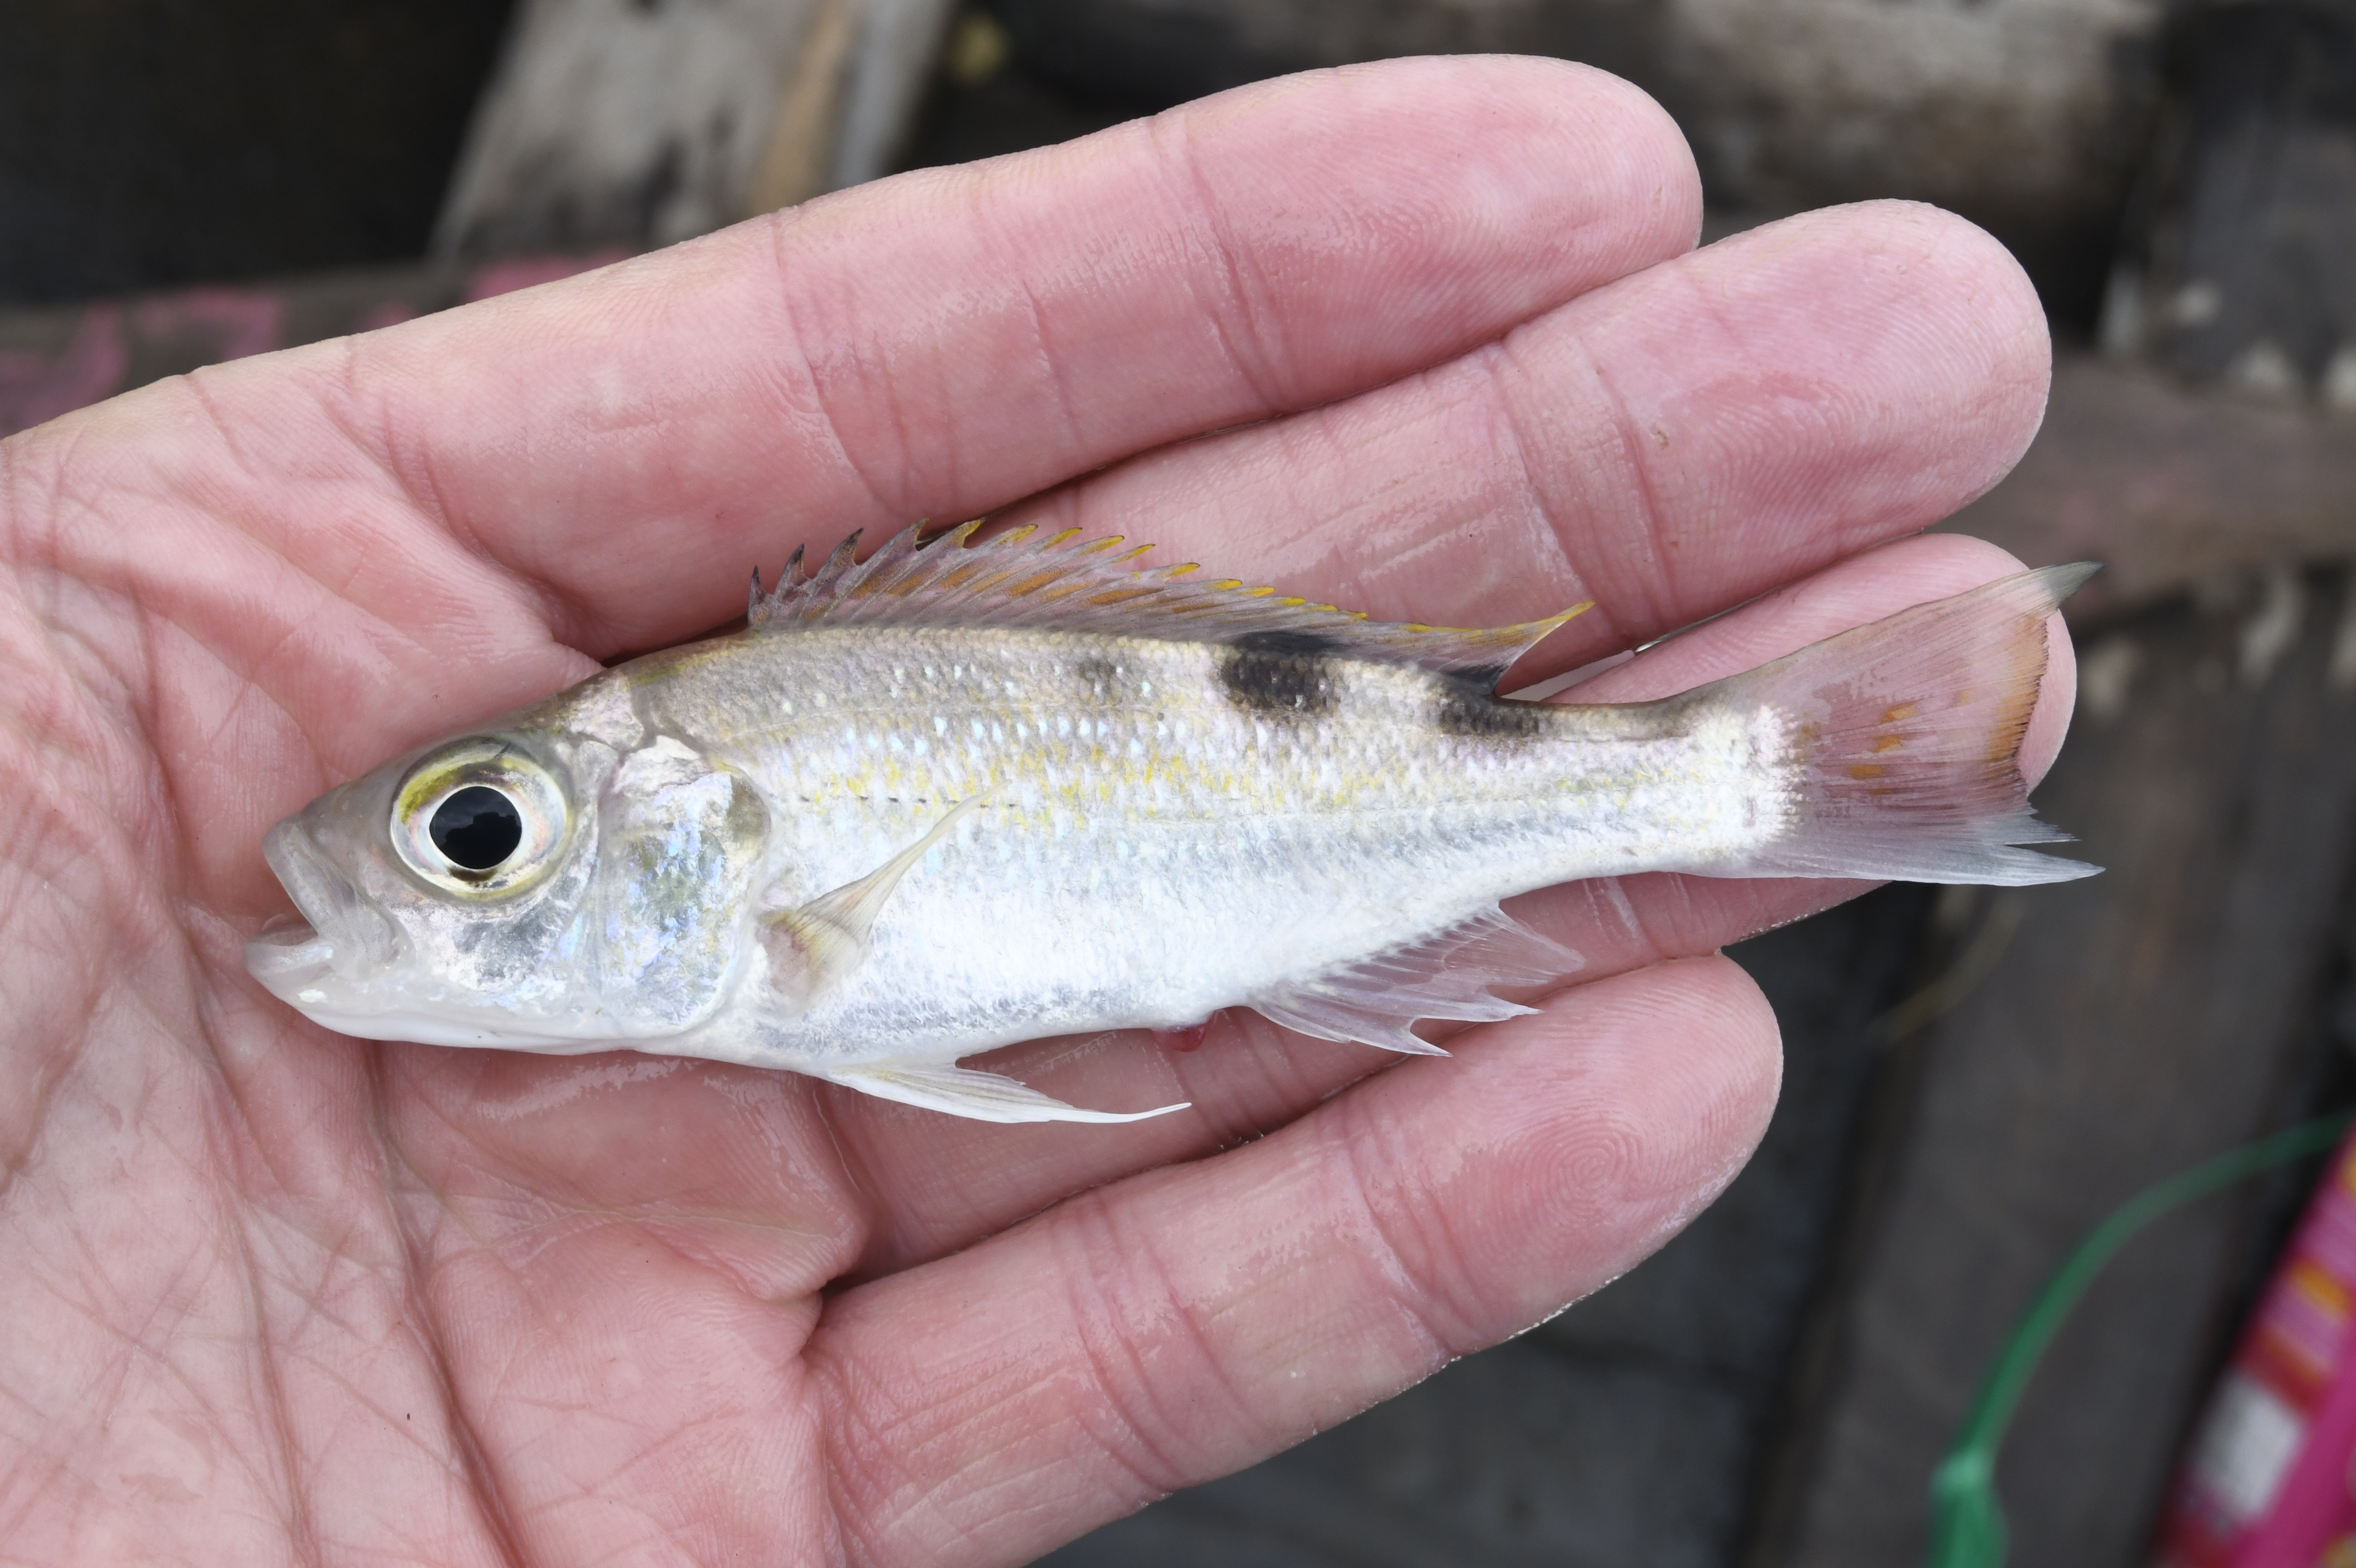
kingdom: Animalia
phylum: Chordata
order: Perciformes
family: Cichlidae
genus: Xenochromis
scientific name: Xenochromis hecqui
